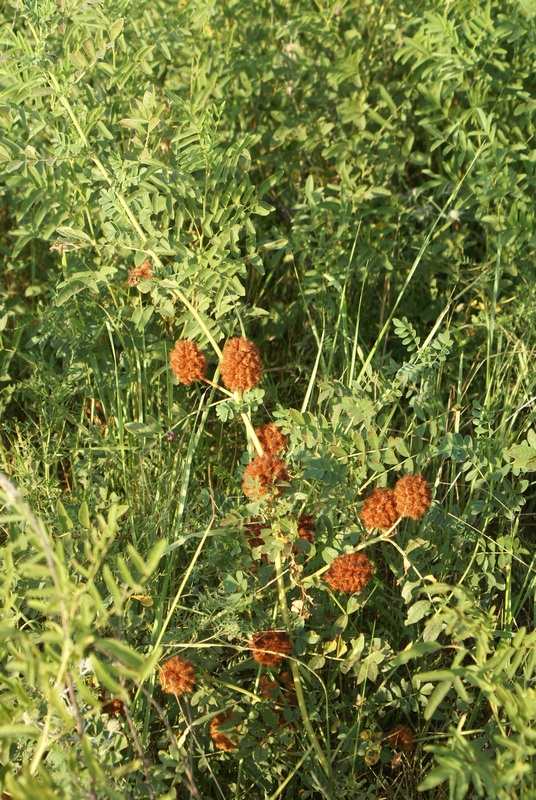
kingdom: Plantae
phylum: Tracheophyta
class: Magnoliopsida
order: Fabales
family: Fabaceae
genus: Astragalus
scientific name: Astragalus
